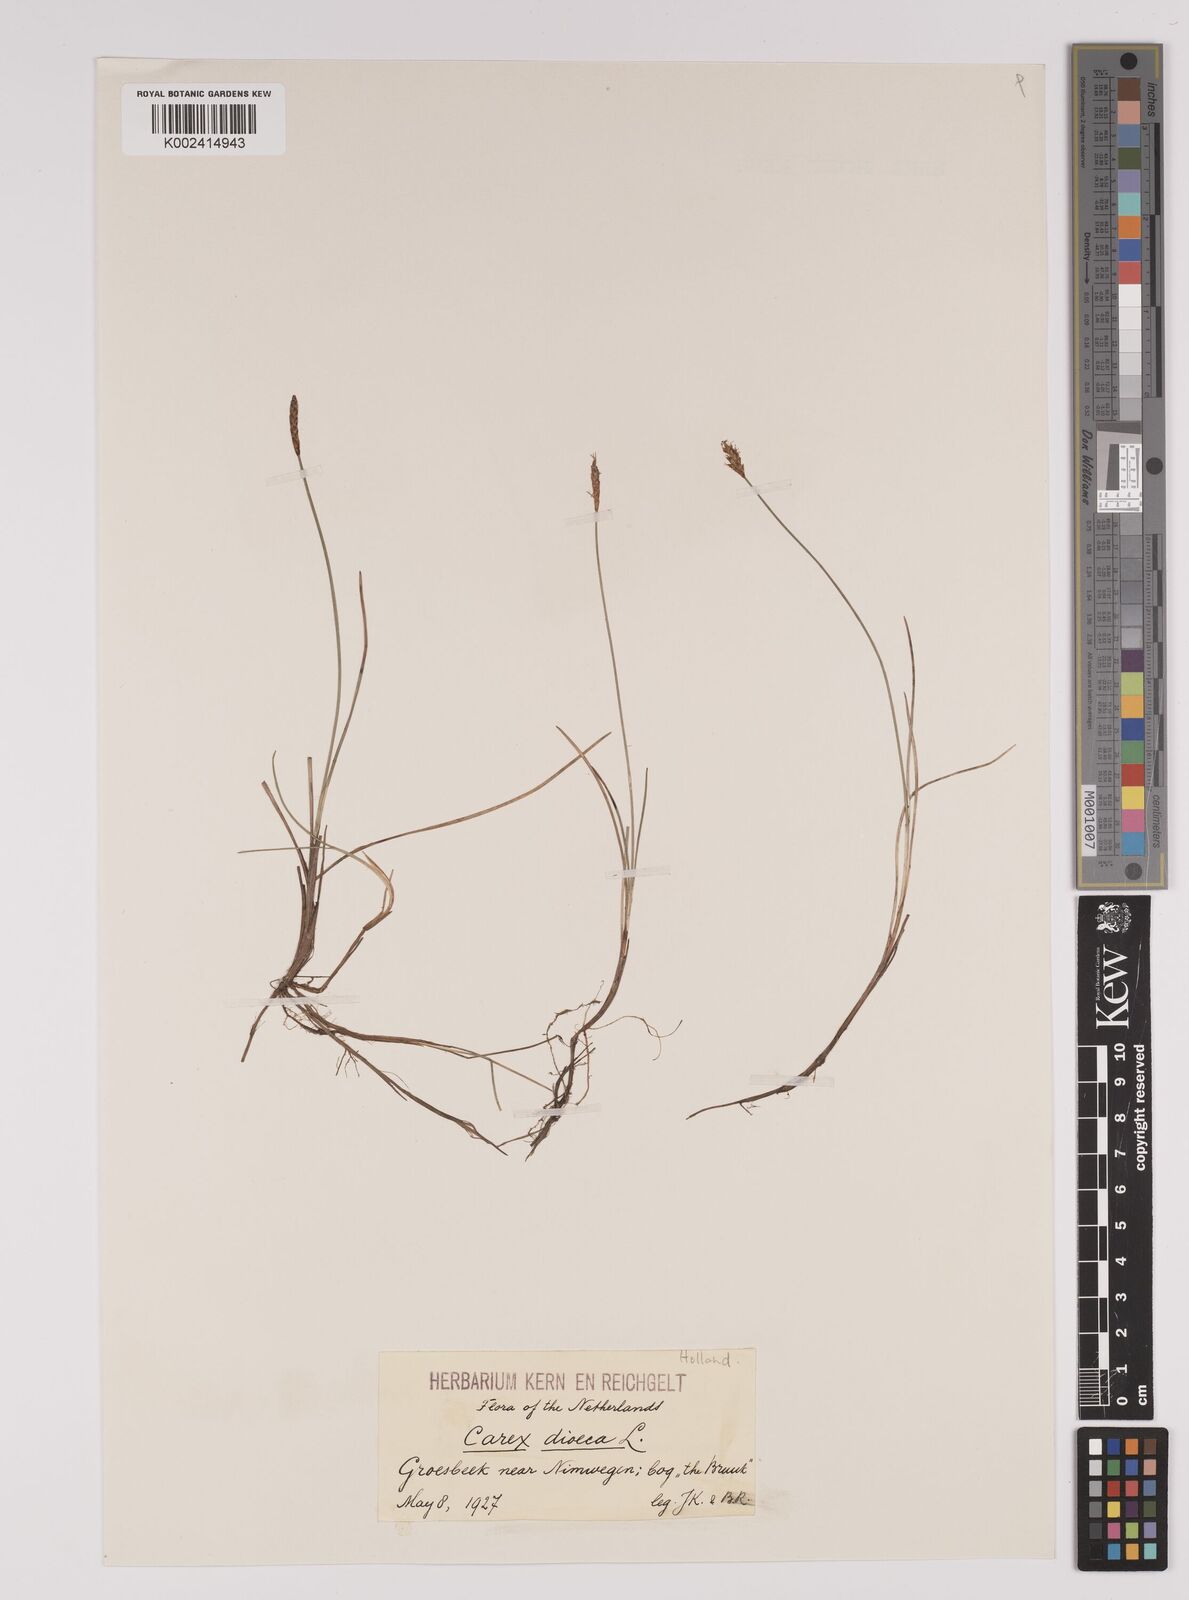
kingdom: Plantae
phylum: Tracheophyta
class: Liliopsida
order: Poales
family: Cyperaceae
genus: Carex
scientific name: Carex dioica
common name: Dioecious sedge
